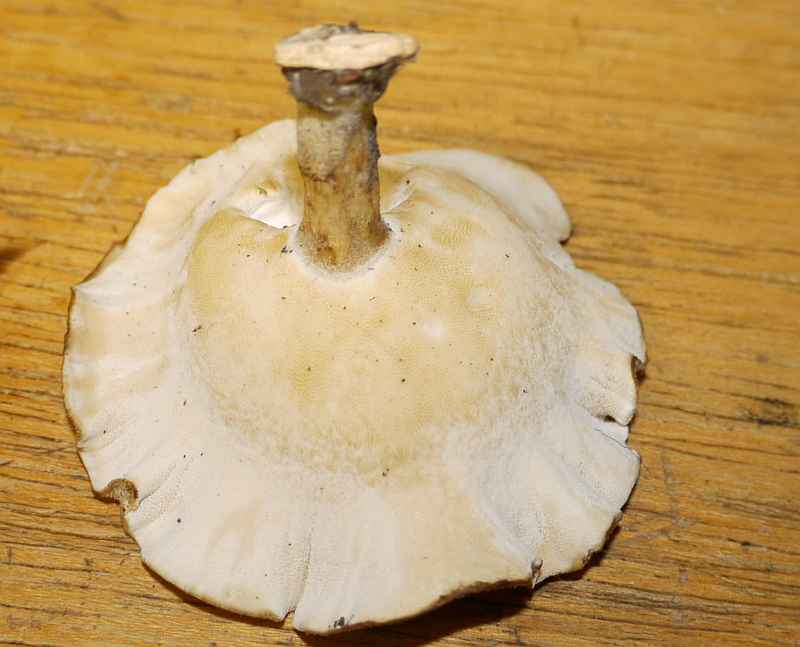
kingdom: Fungi
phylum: Basidiomycota
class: Agaricomycetes
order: Polyporales
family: Polyporaceae
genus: Lentinus
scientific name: Lentinus substrictus
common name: forårs-stilkporesvamp
